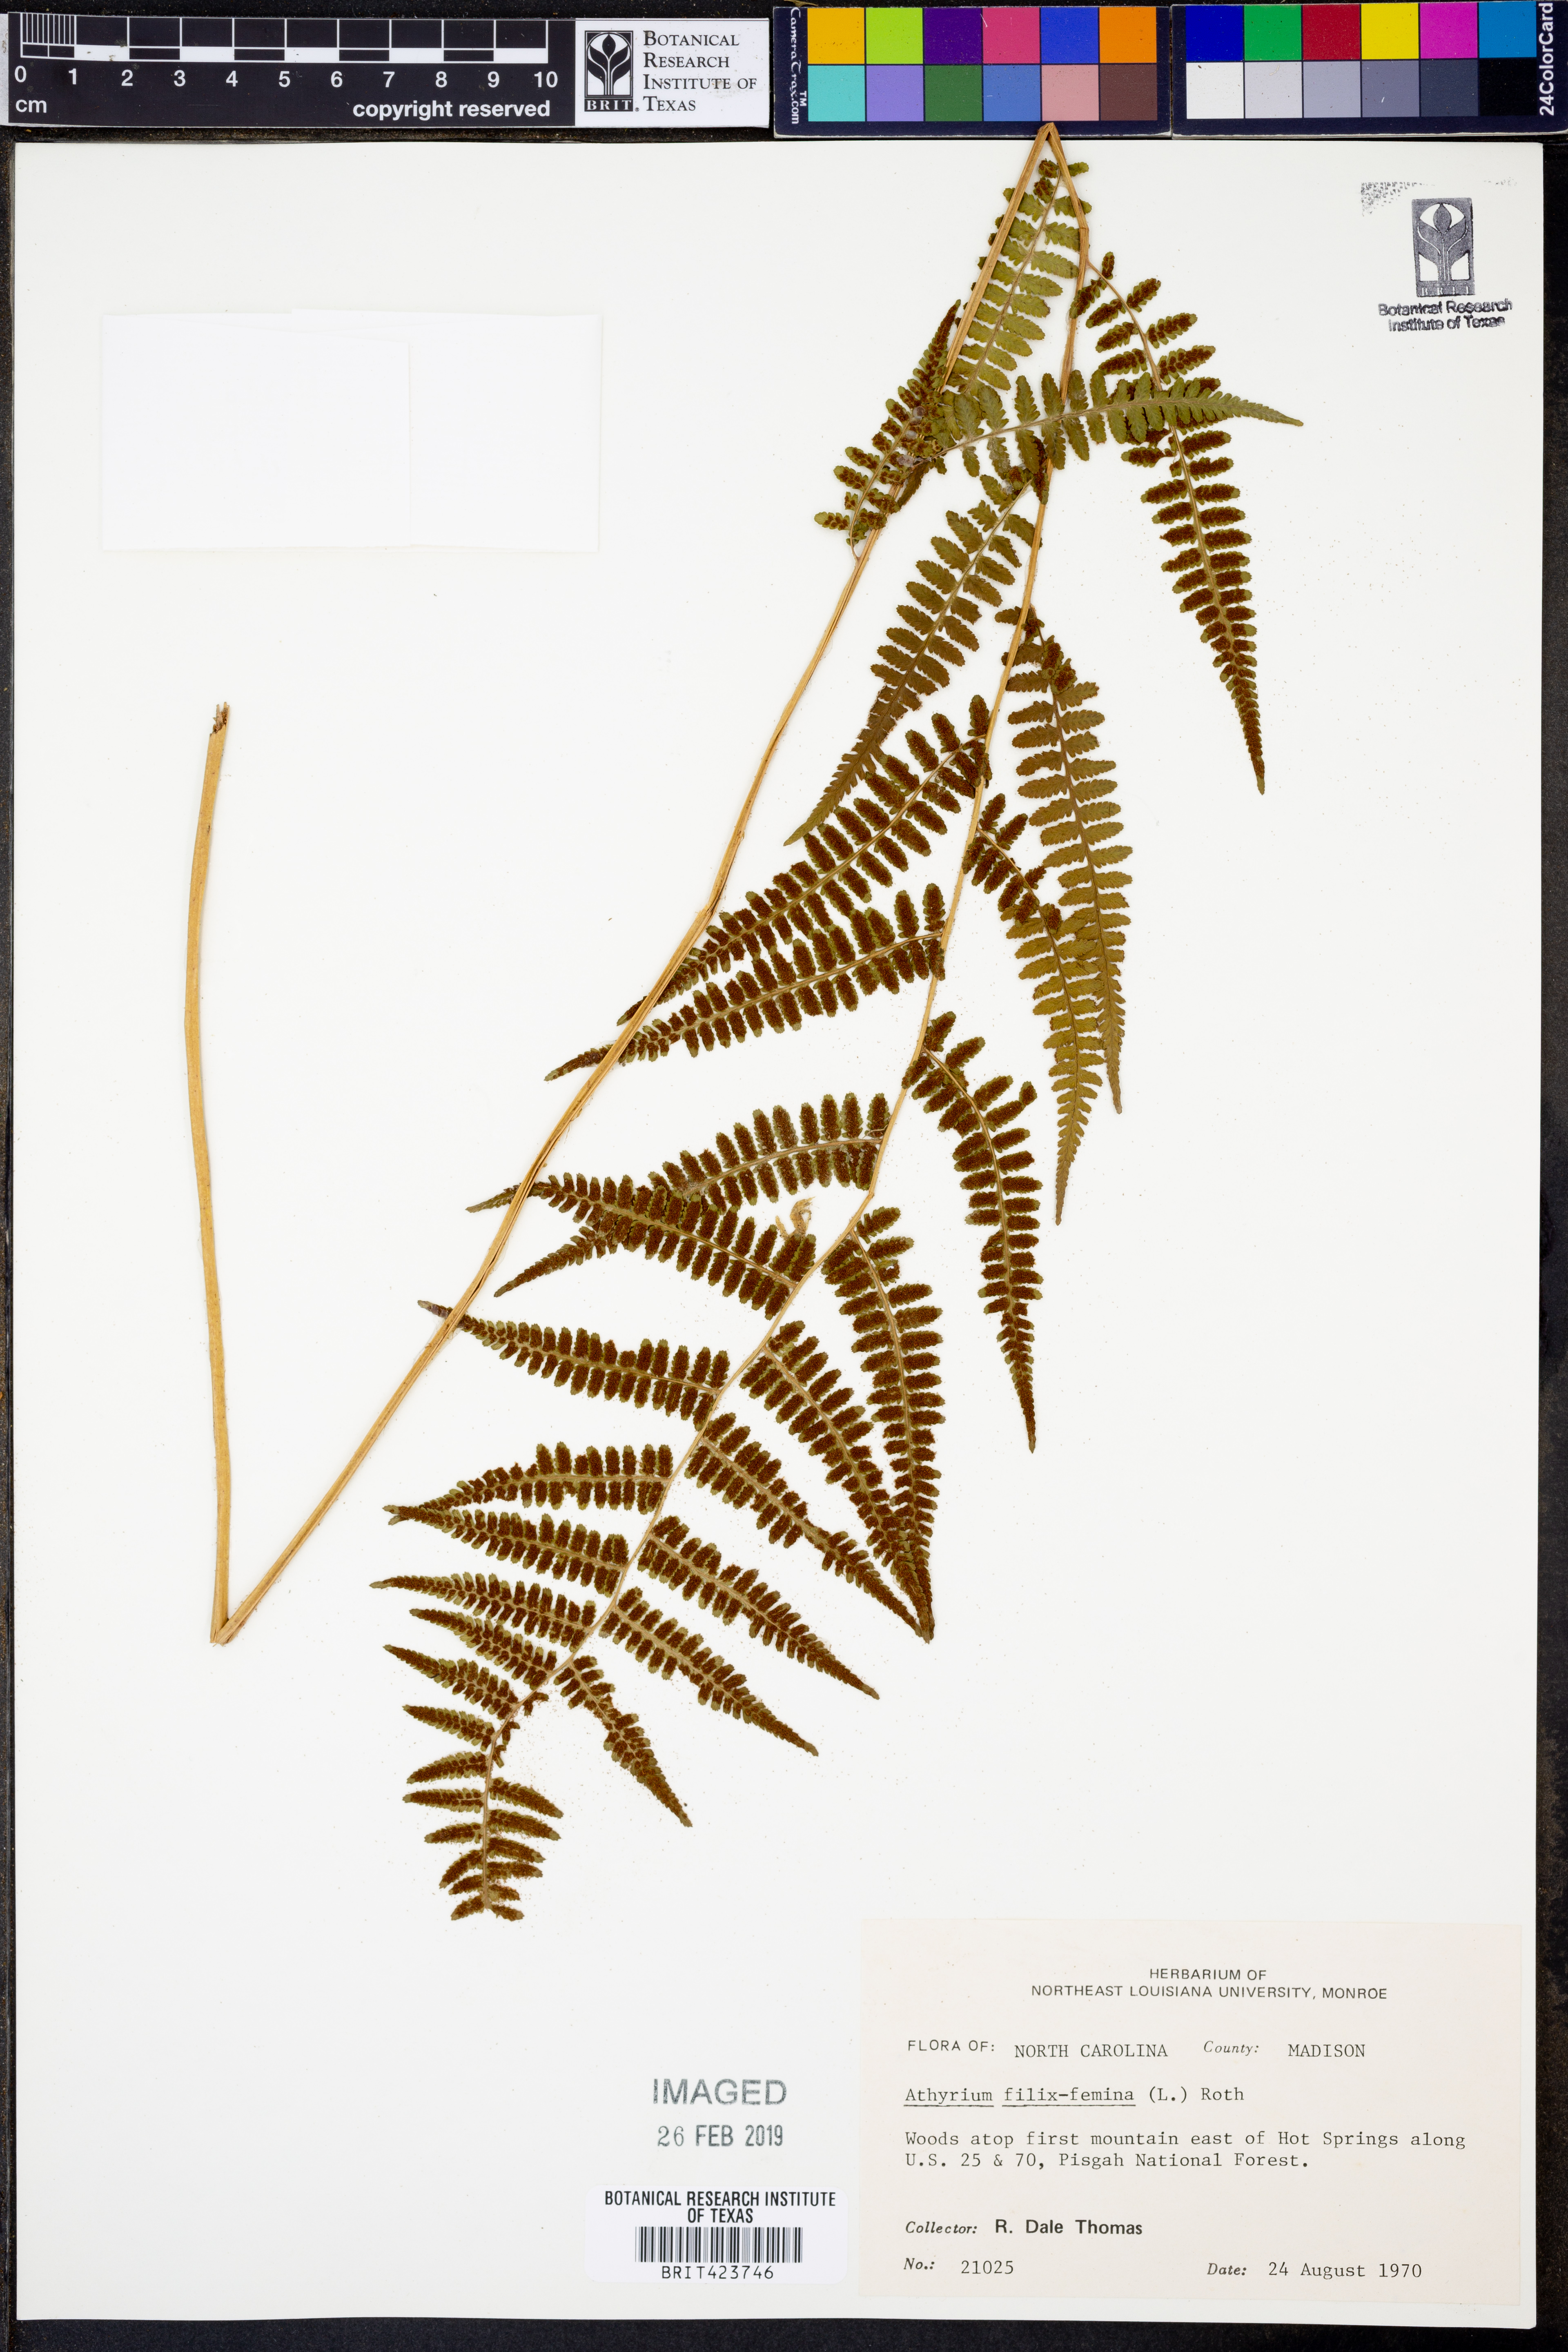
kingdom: Plantae
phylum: Tracheophyta
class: Polypodiopsida
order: Polypodiales
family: Athyriaceae
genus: Athyrium
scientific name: Athyrium filix-femina
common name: Lady fern
